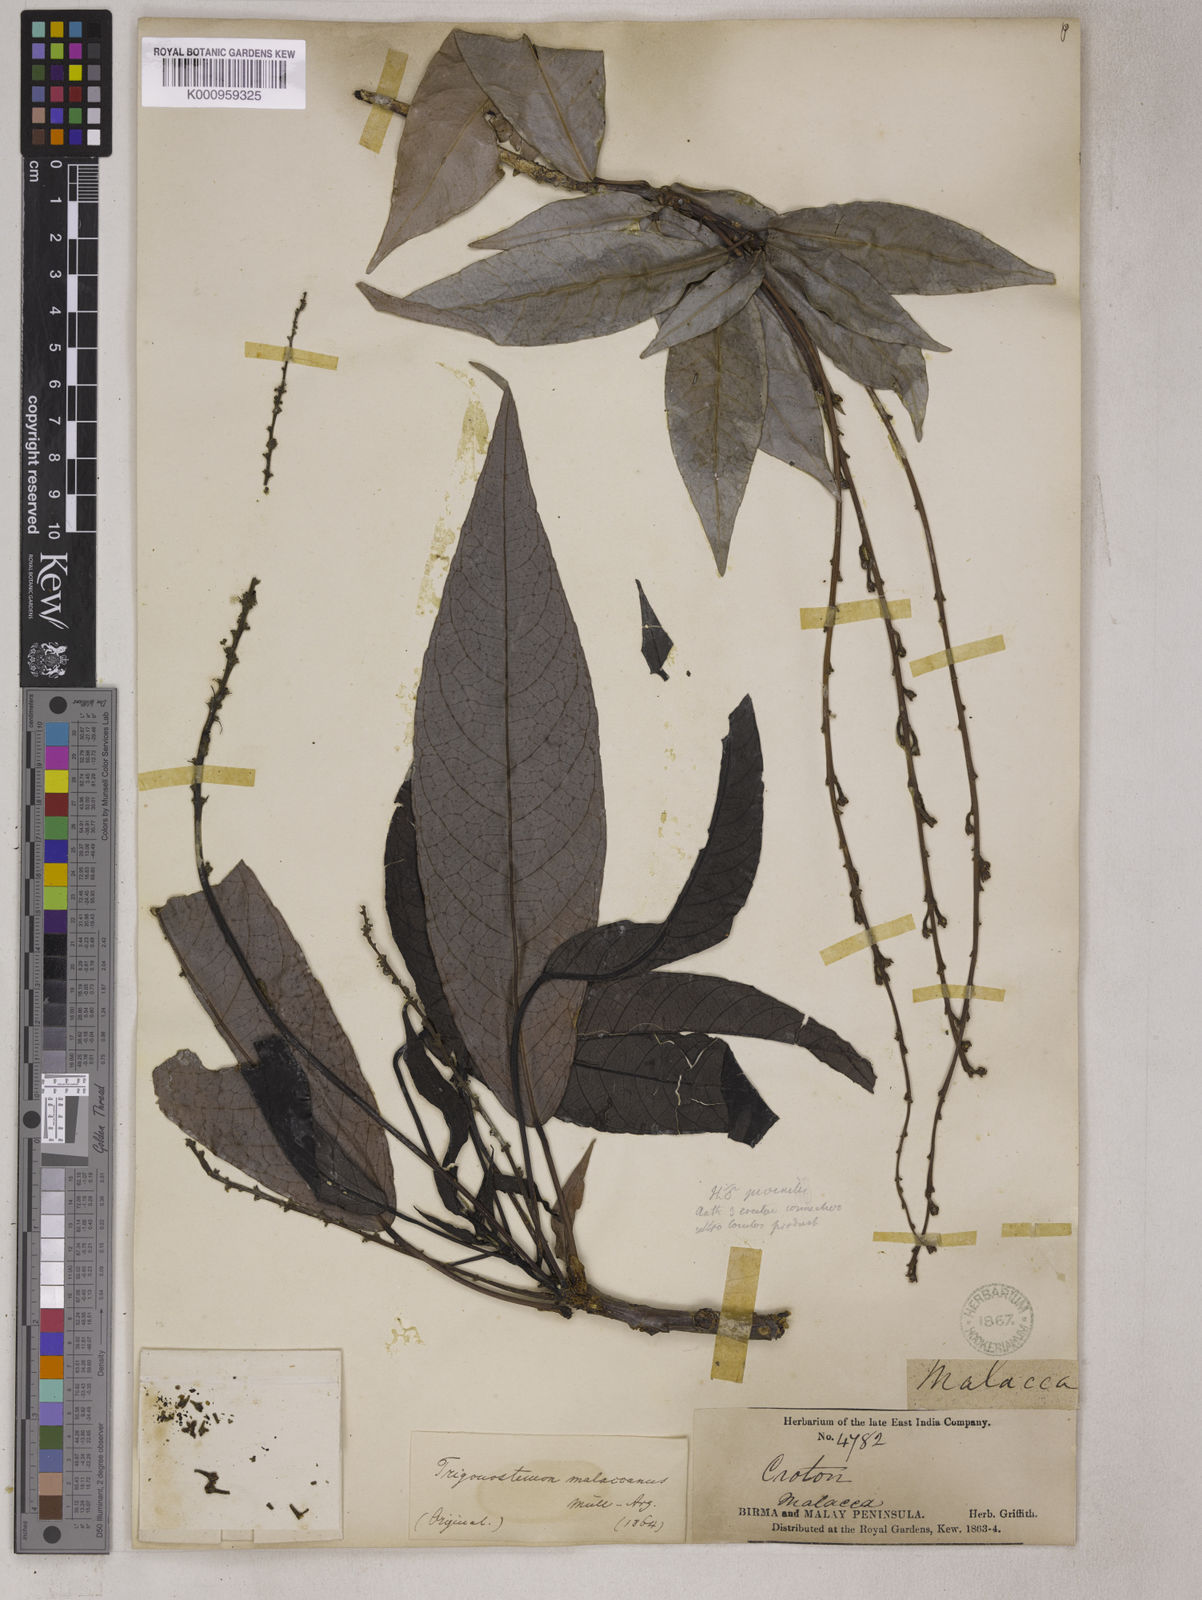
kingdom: Plantae
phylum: Tracheophyta
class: Magnoliopsida
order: Malpighiales
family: Euphorbiaceae
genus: Trigonostemon
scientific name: Trigonostemon malaccanus
